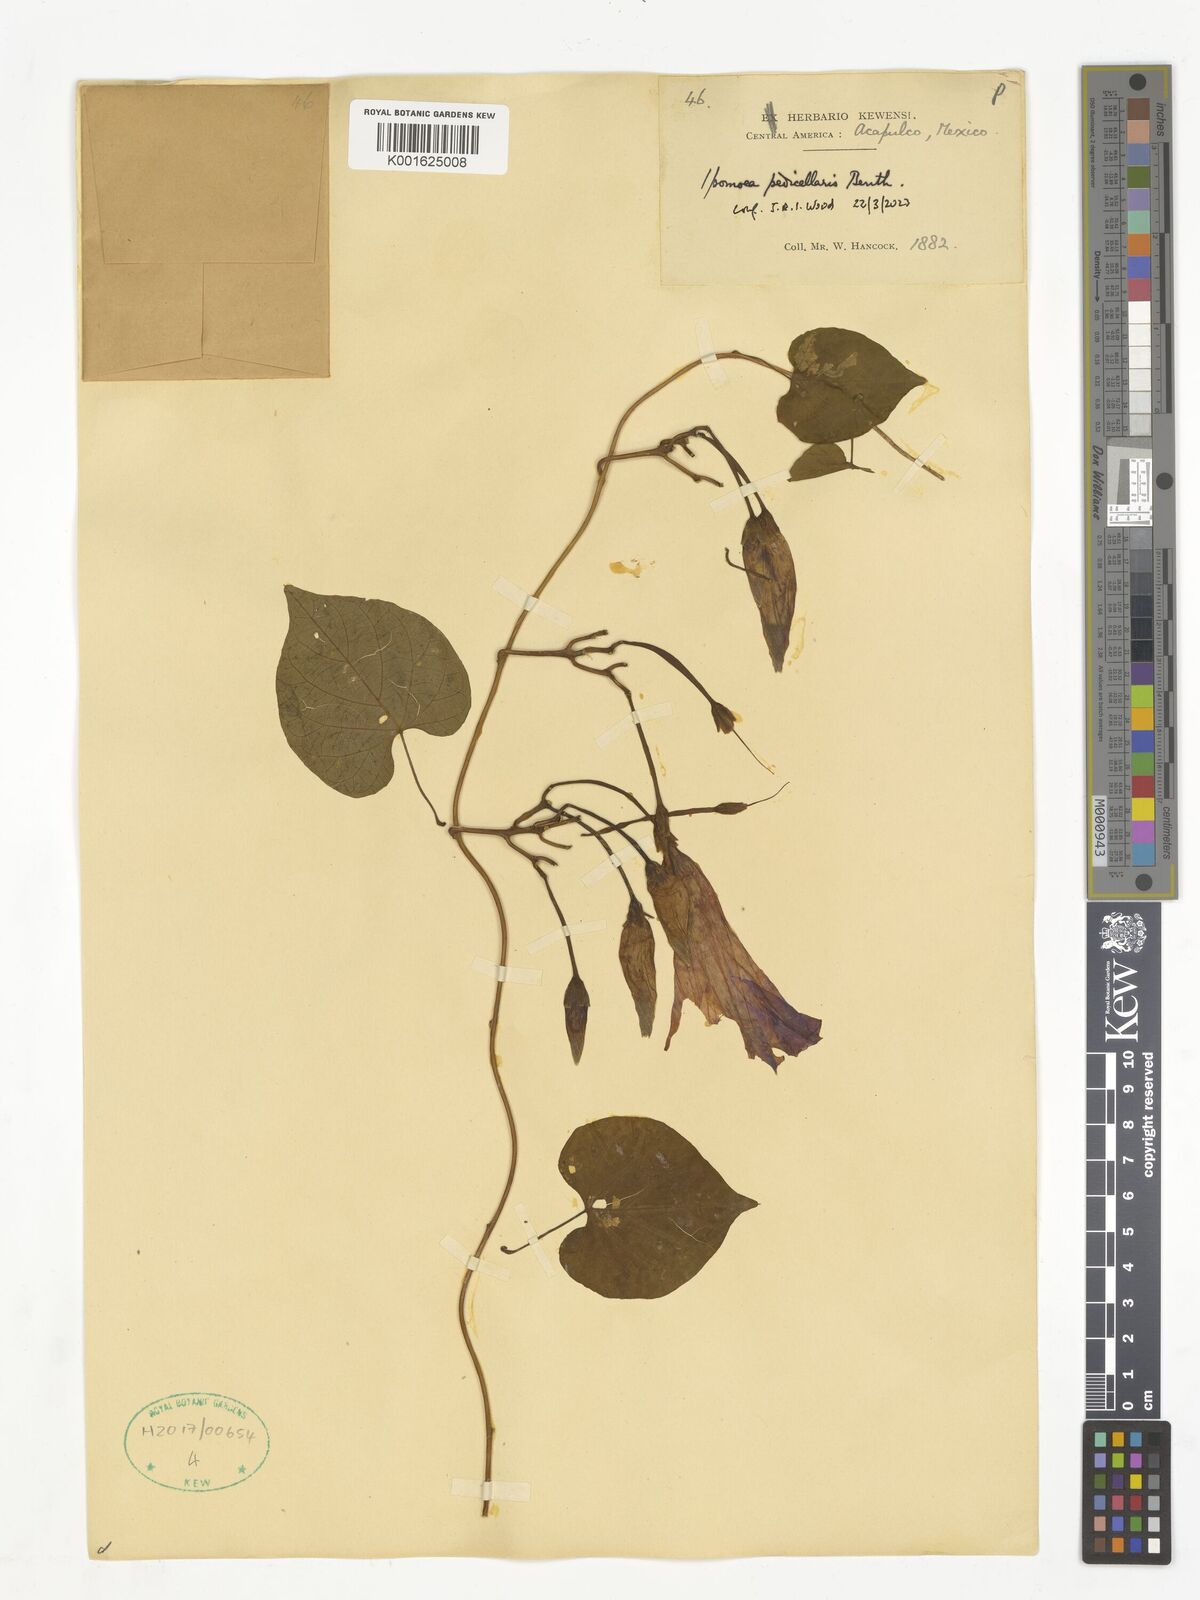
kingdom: Plantae
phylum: Tracheophyta
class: Magnoliopsida
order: Solanales
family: Convolvulaceae
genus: Ipomoea
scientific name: Ipomoea pedicellaris
